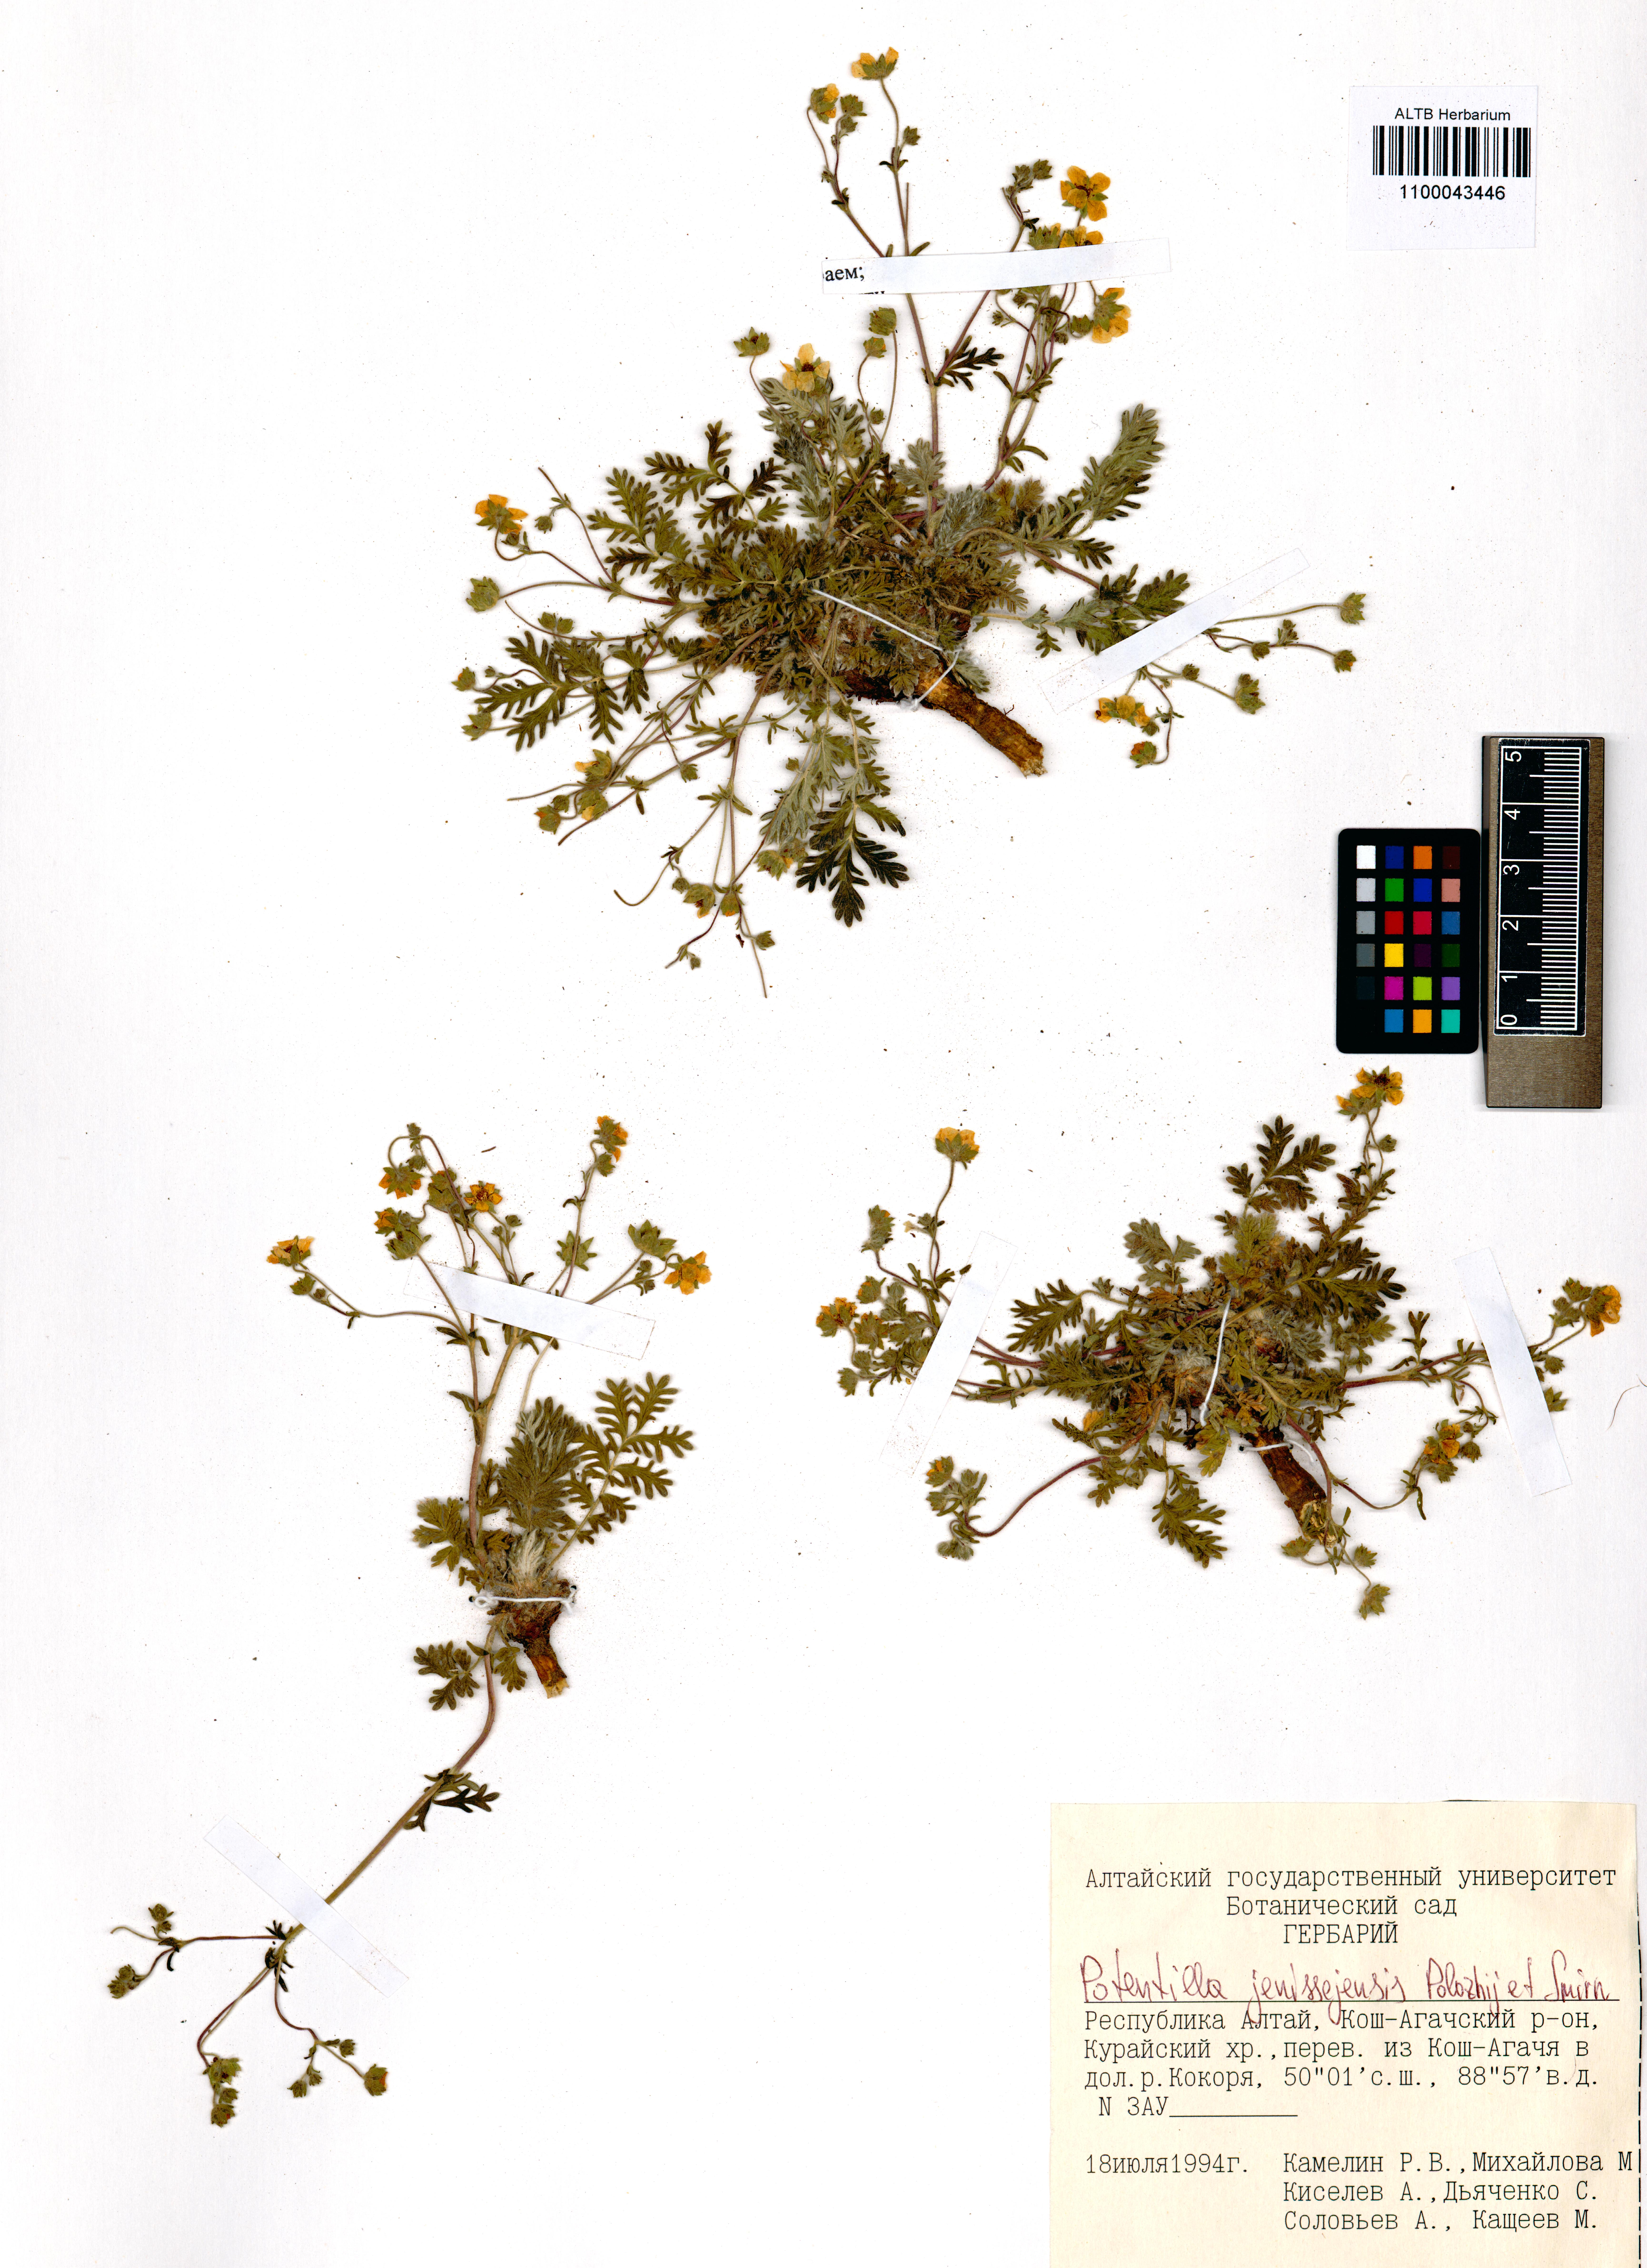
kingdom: Plantae
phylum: Tracheophyta
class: Magnoliopsida
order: Rosales
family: Rosaceae
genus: Potentilla
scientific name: Potentilla jenissejensis
